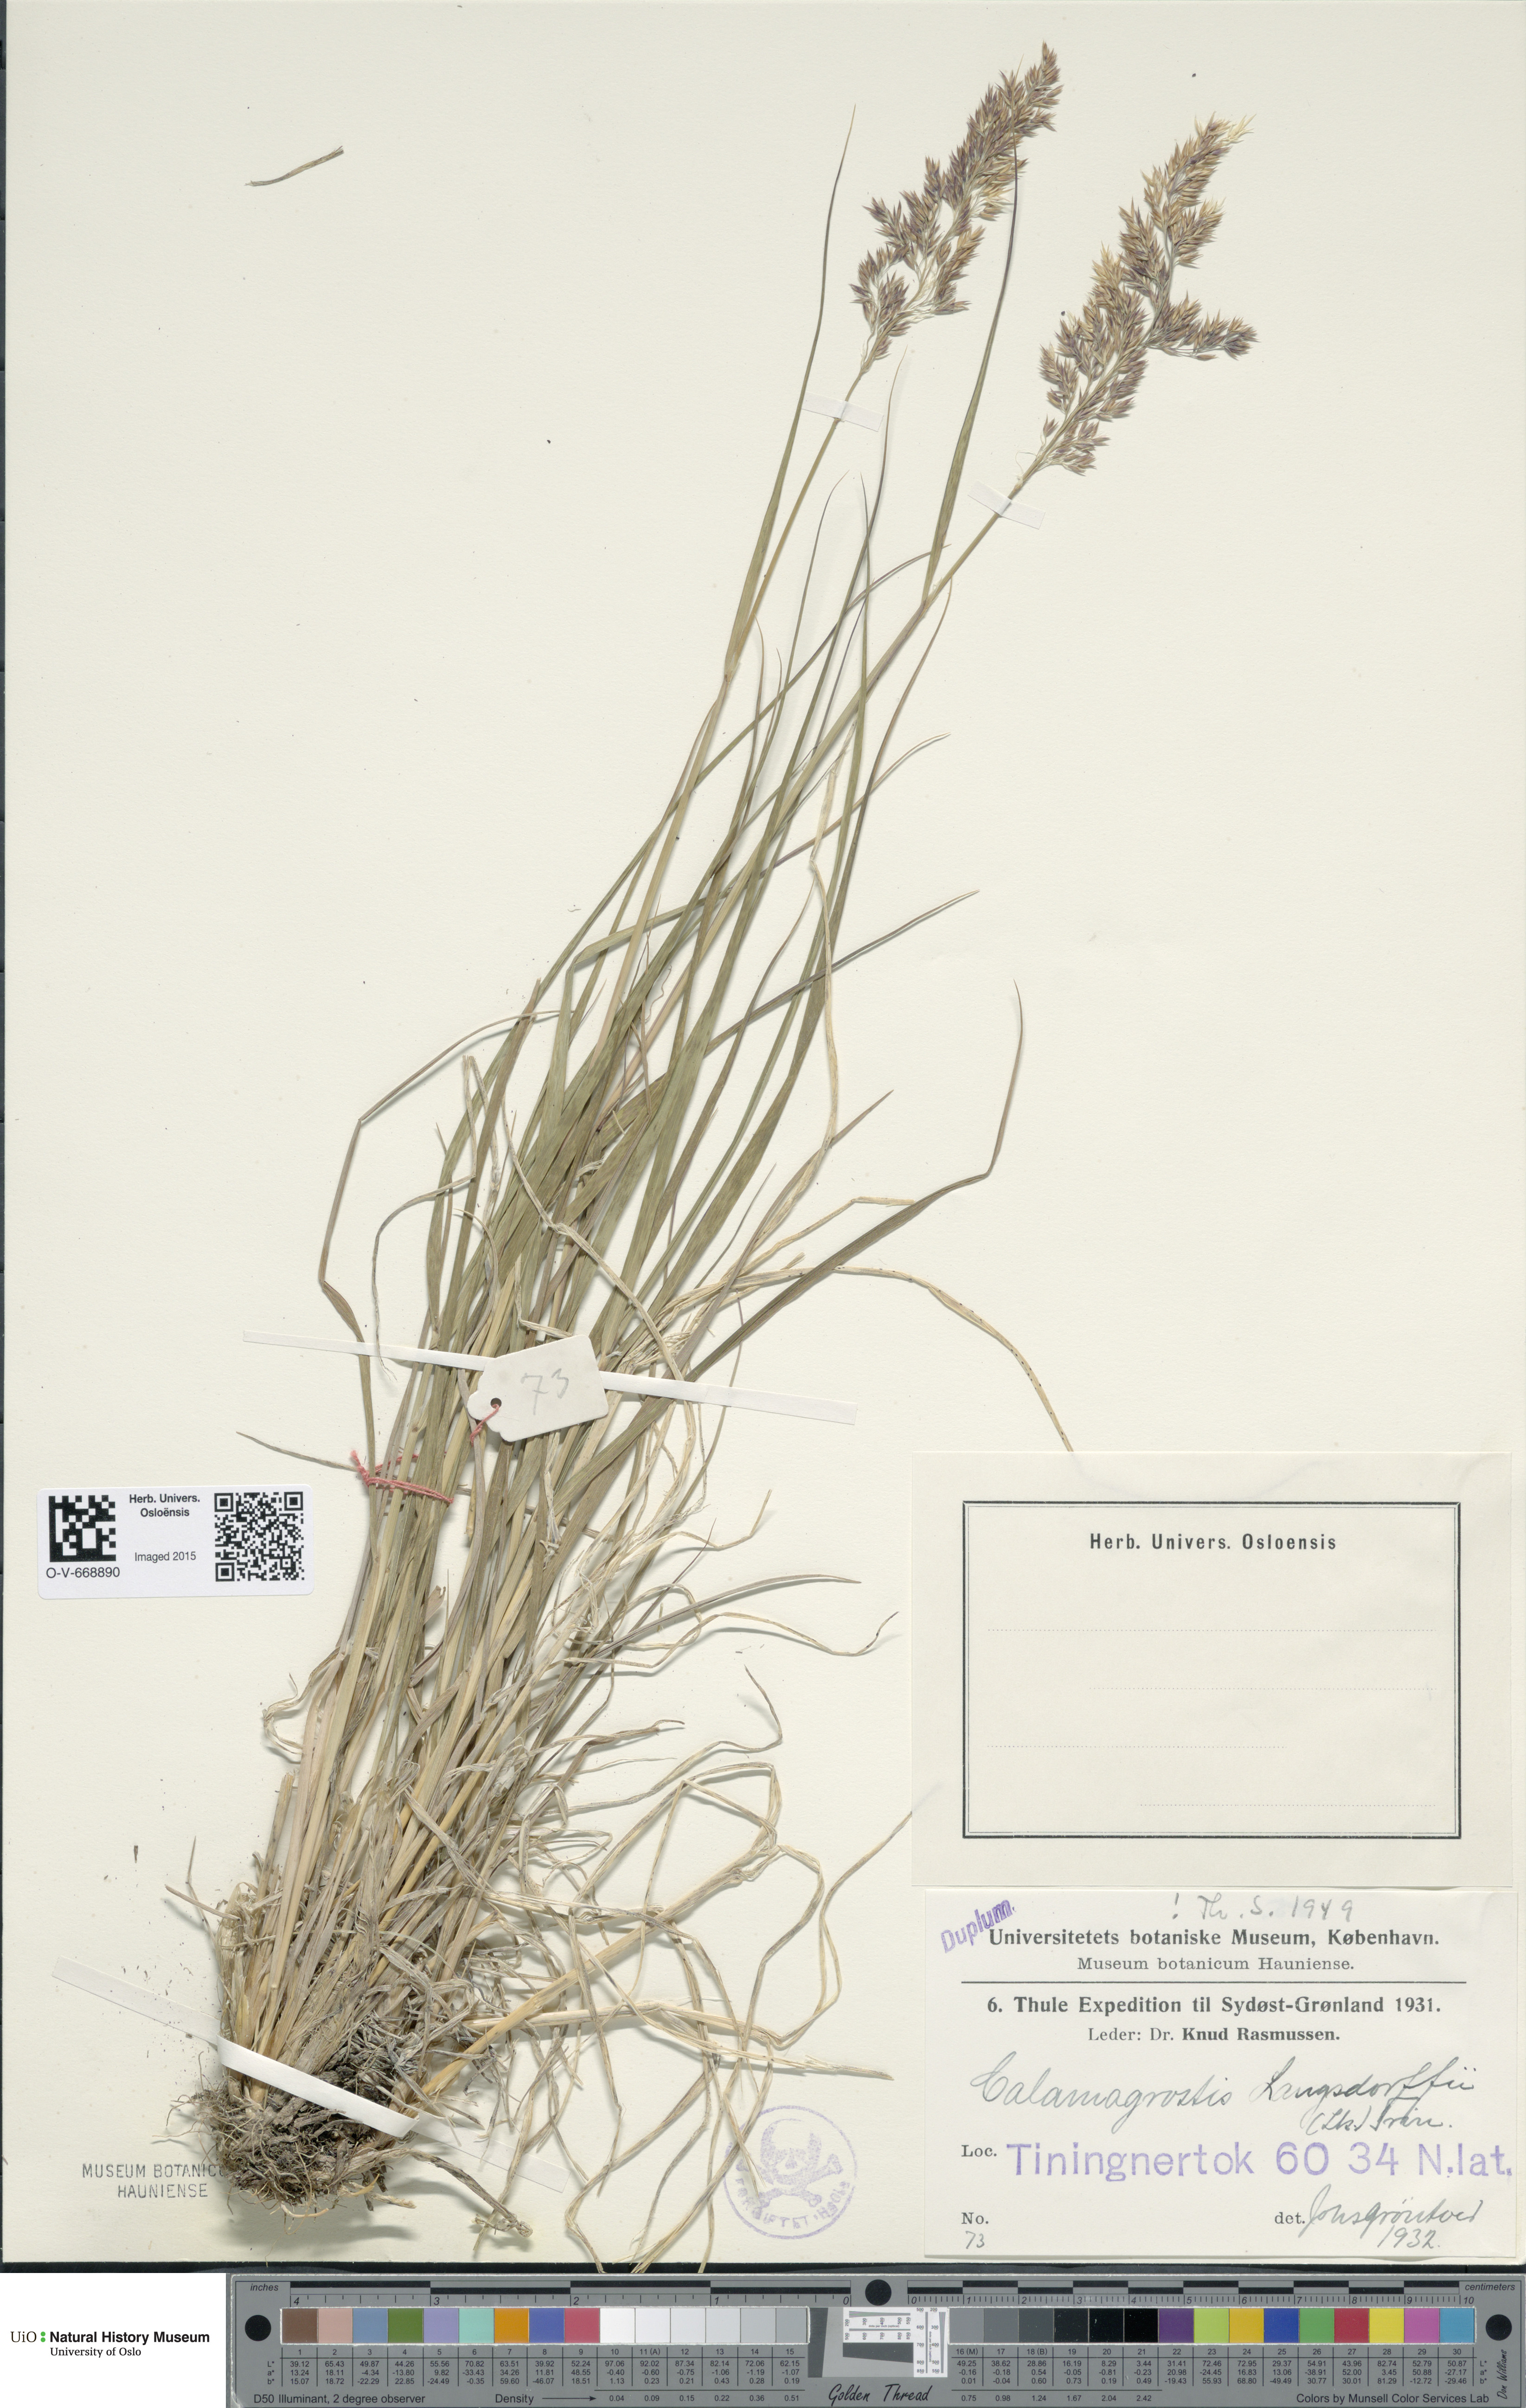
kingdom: Plantae
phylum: Tracheophyta
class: Liliopsida
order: Poales
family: Poaceae
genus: Calamagrostis
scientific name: Calamagrostis purpurea
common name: Scandinavian small-reed
